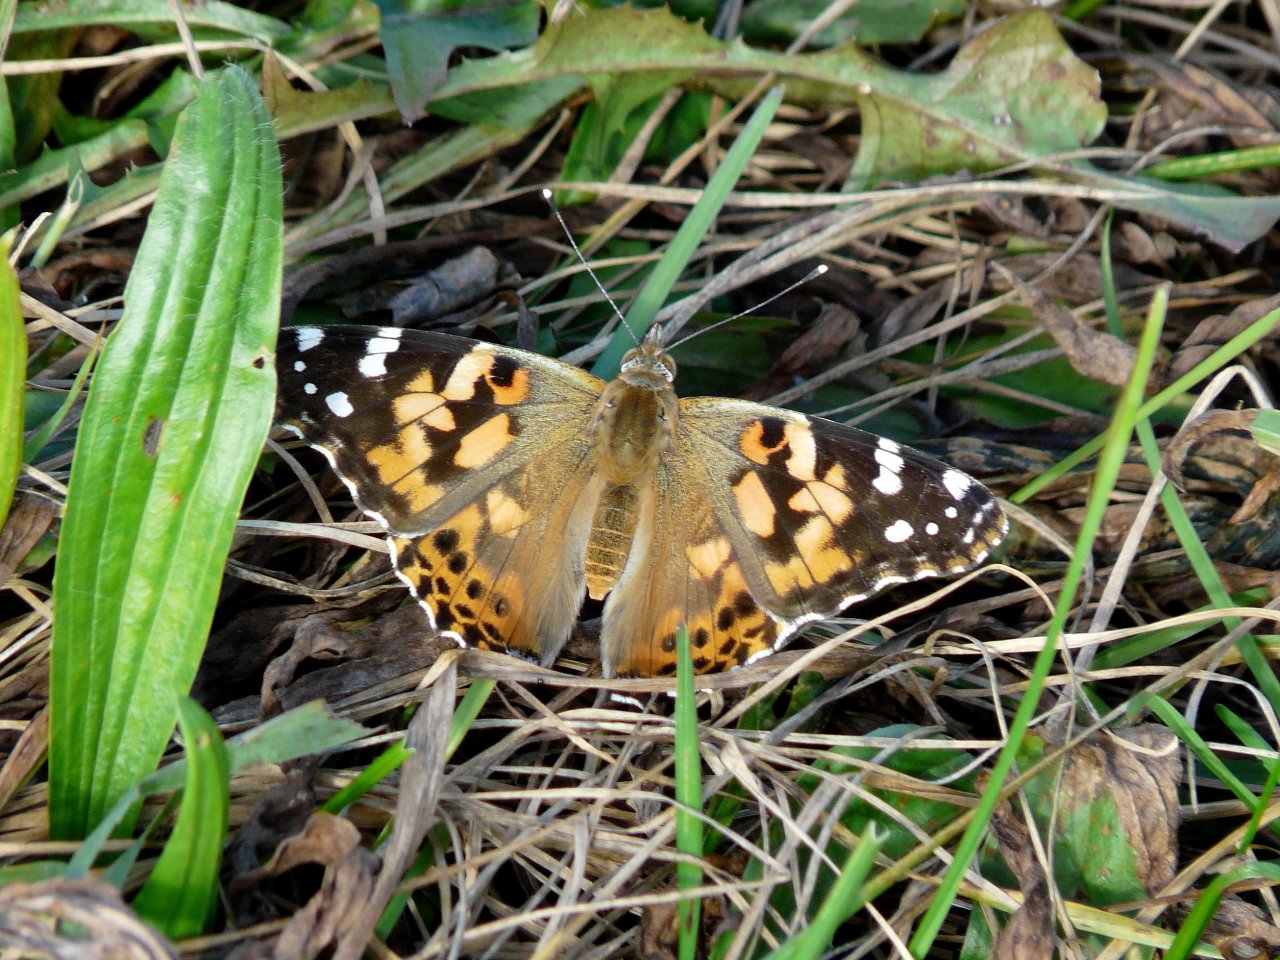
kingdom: Animalia
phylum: Arthropoda
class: Insecta
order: Lepidoptera
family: Nymphalidae
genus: Vanessa
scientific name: Vanessa cardui
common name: Painted Lady
